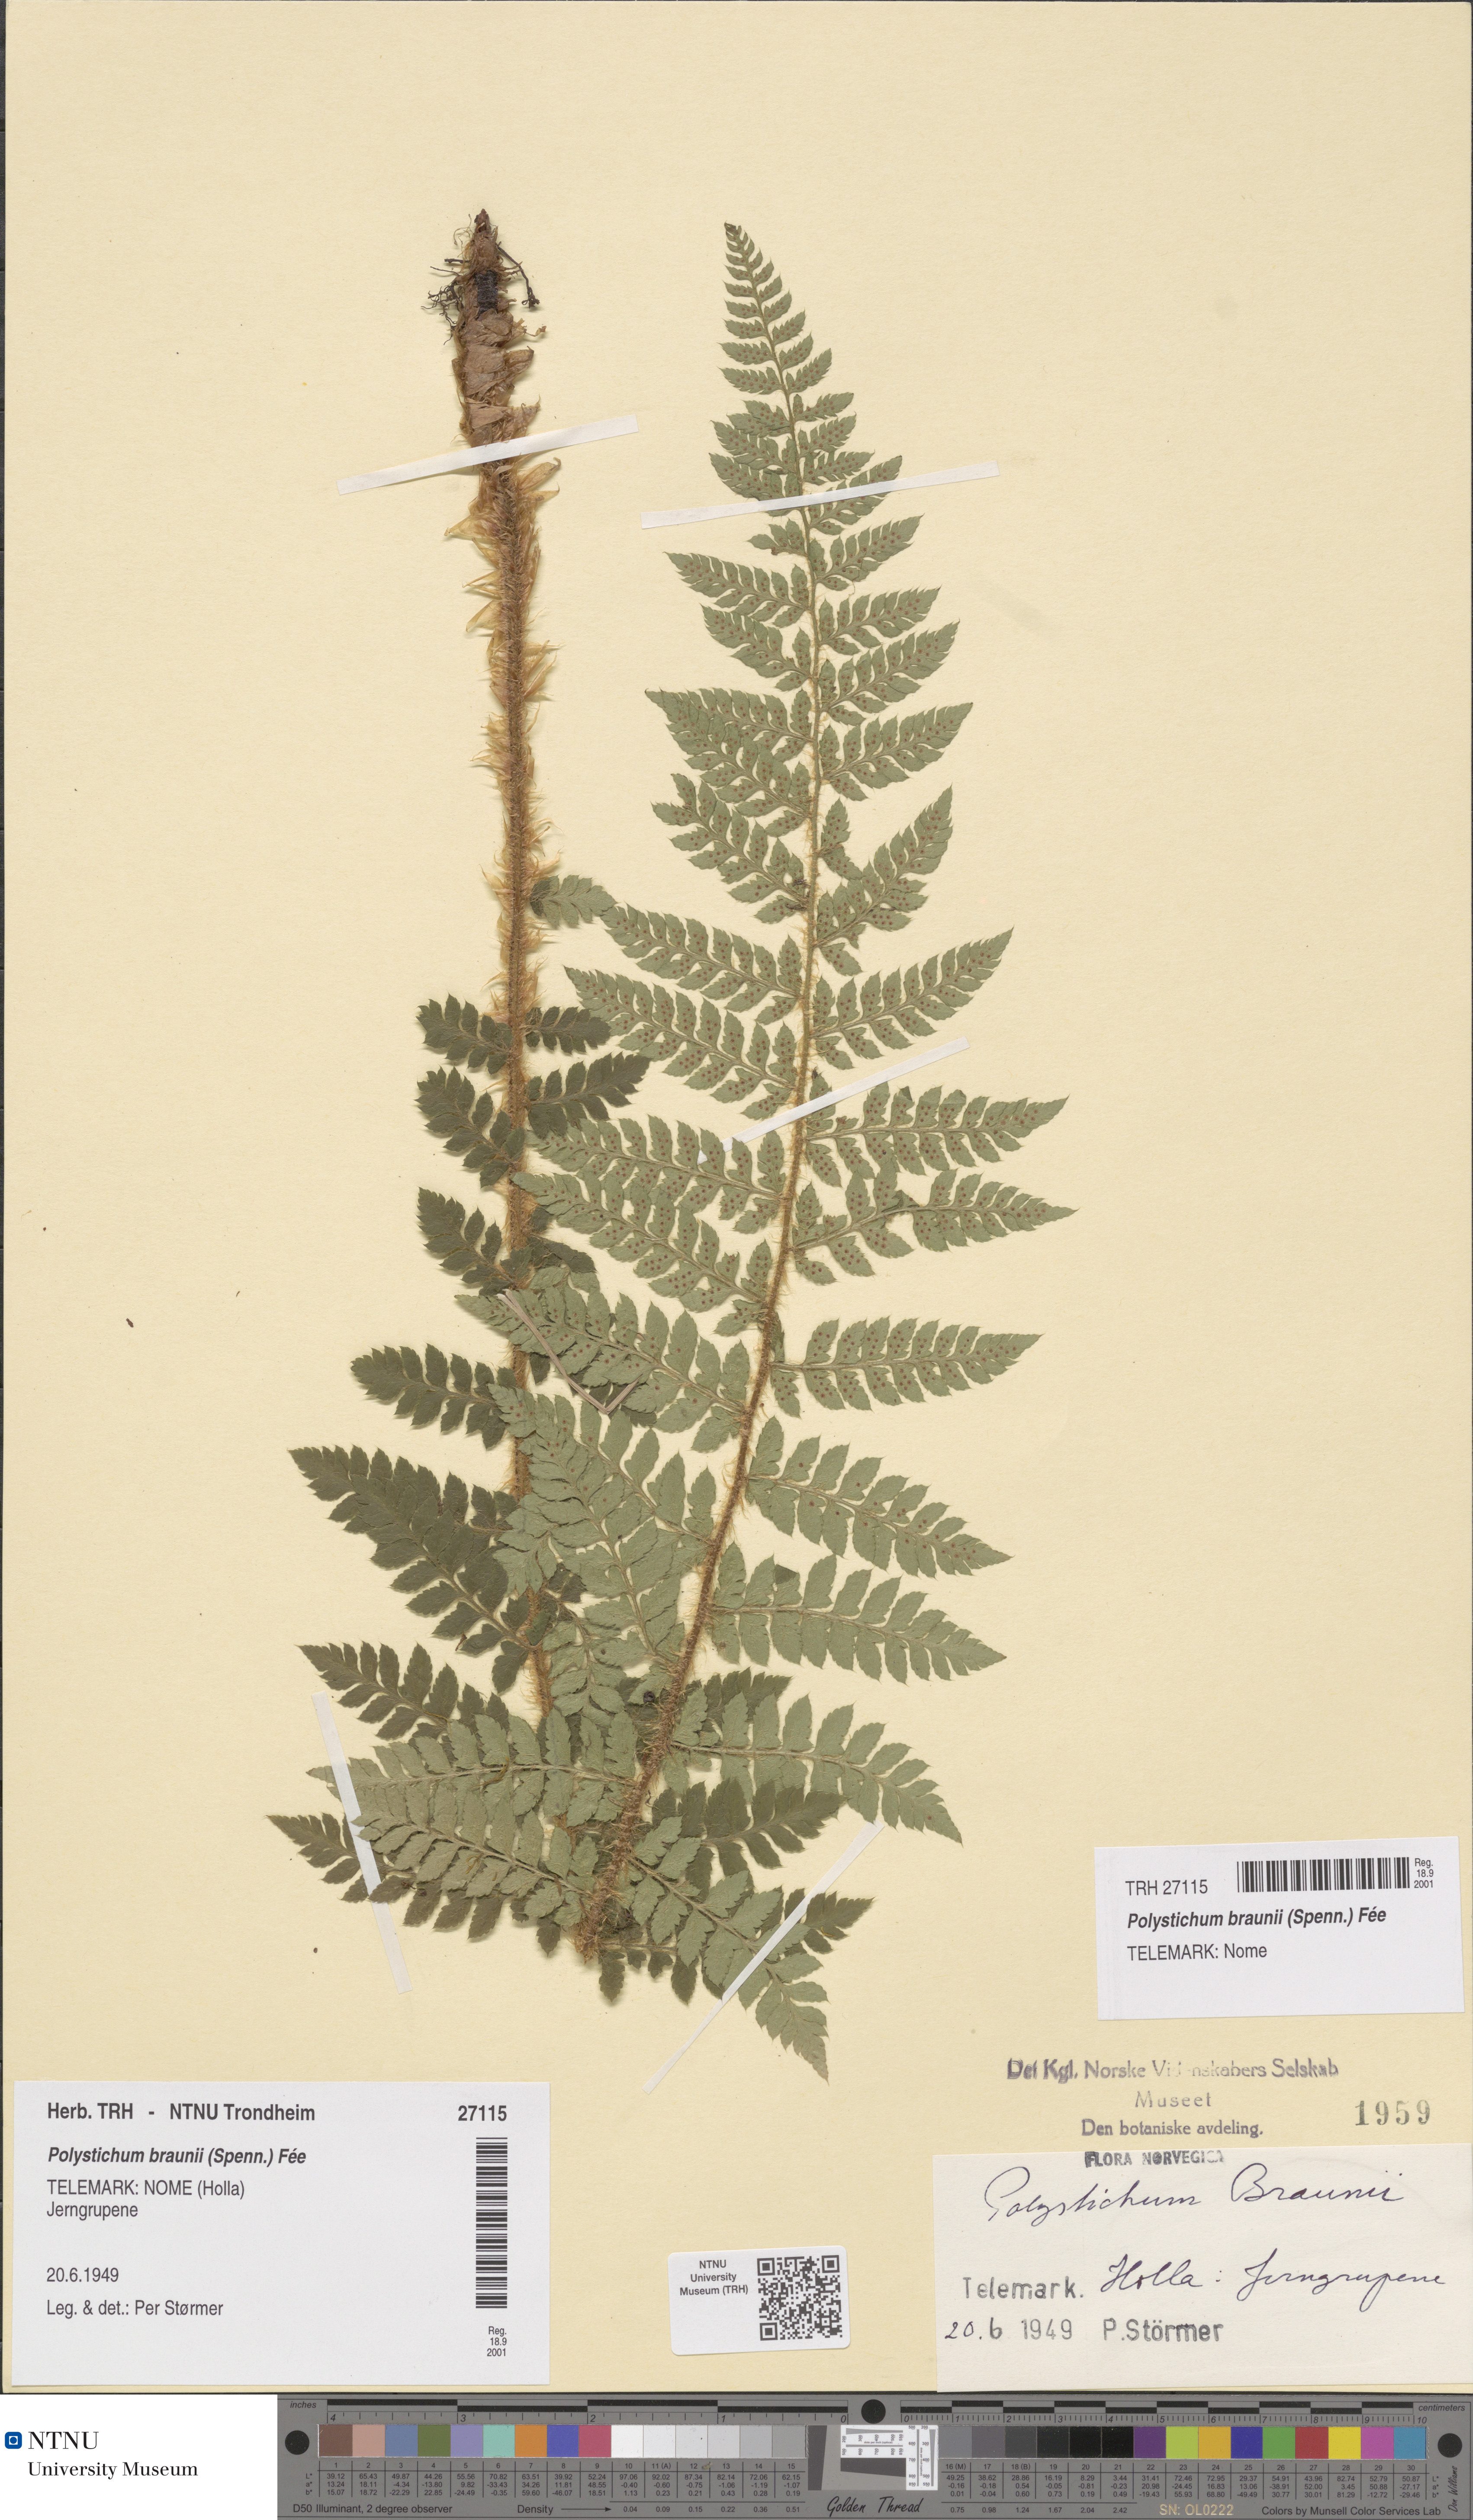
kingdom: Plantae
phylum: Tracheophyta
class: Polypodiopsida
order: Polypodiales
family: Dryopteridaceae
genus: Polystichum
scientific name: Polystichum braunii
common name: Braun's holly fern
